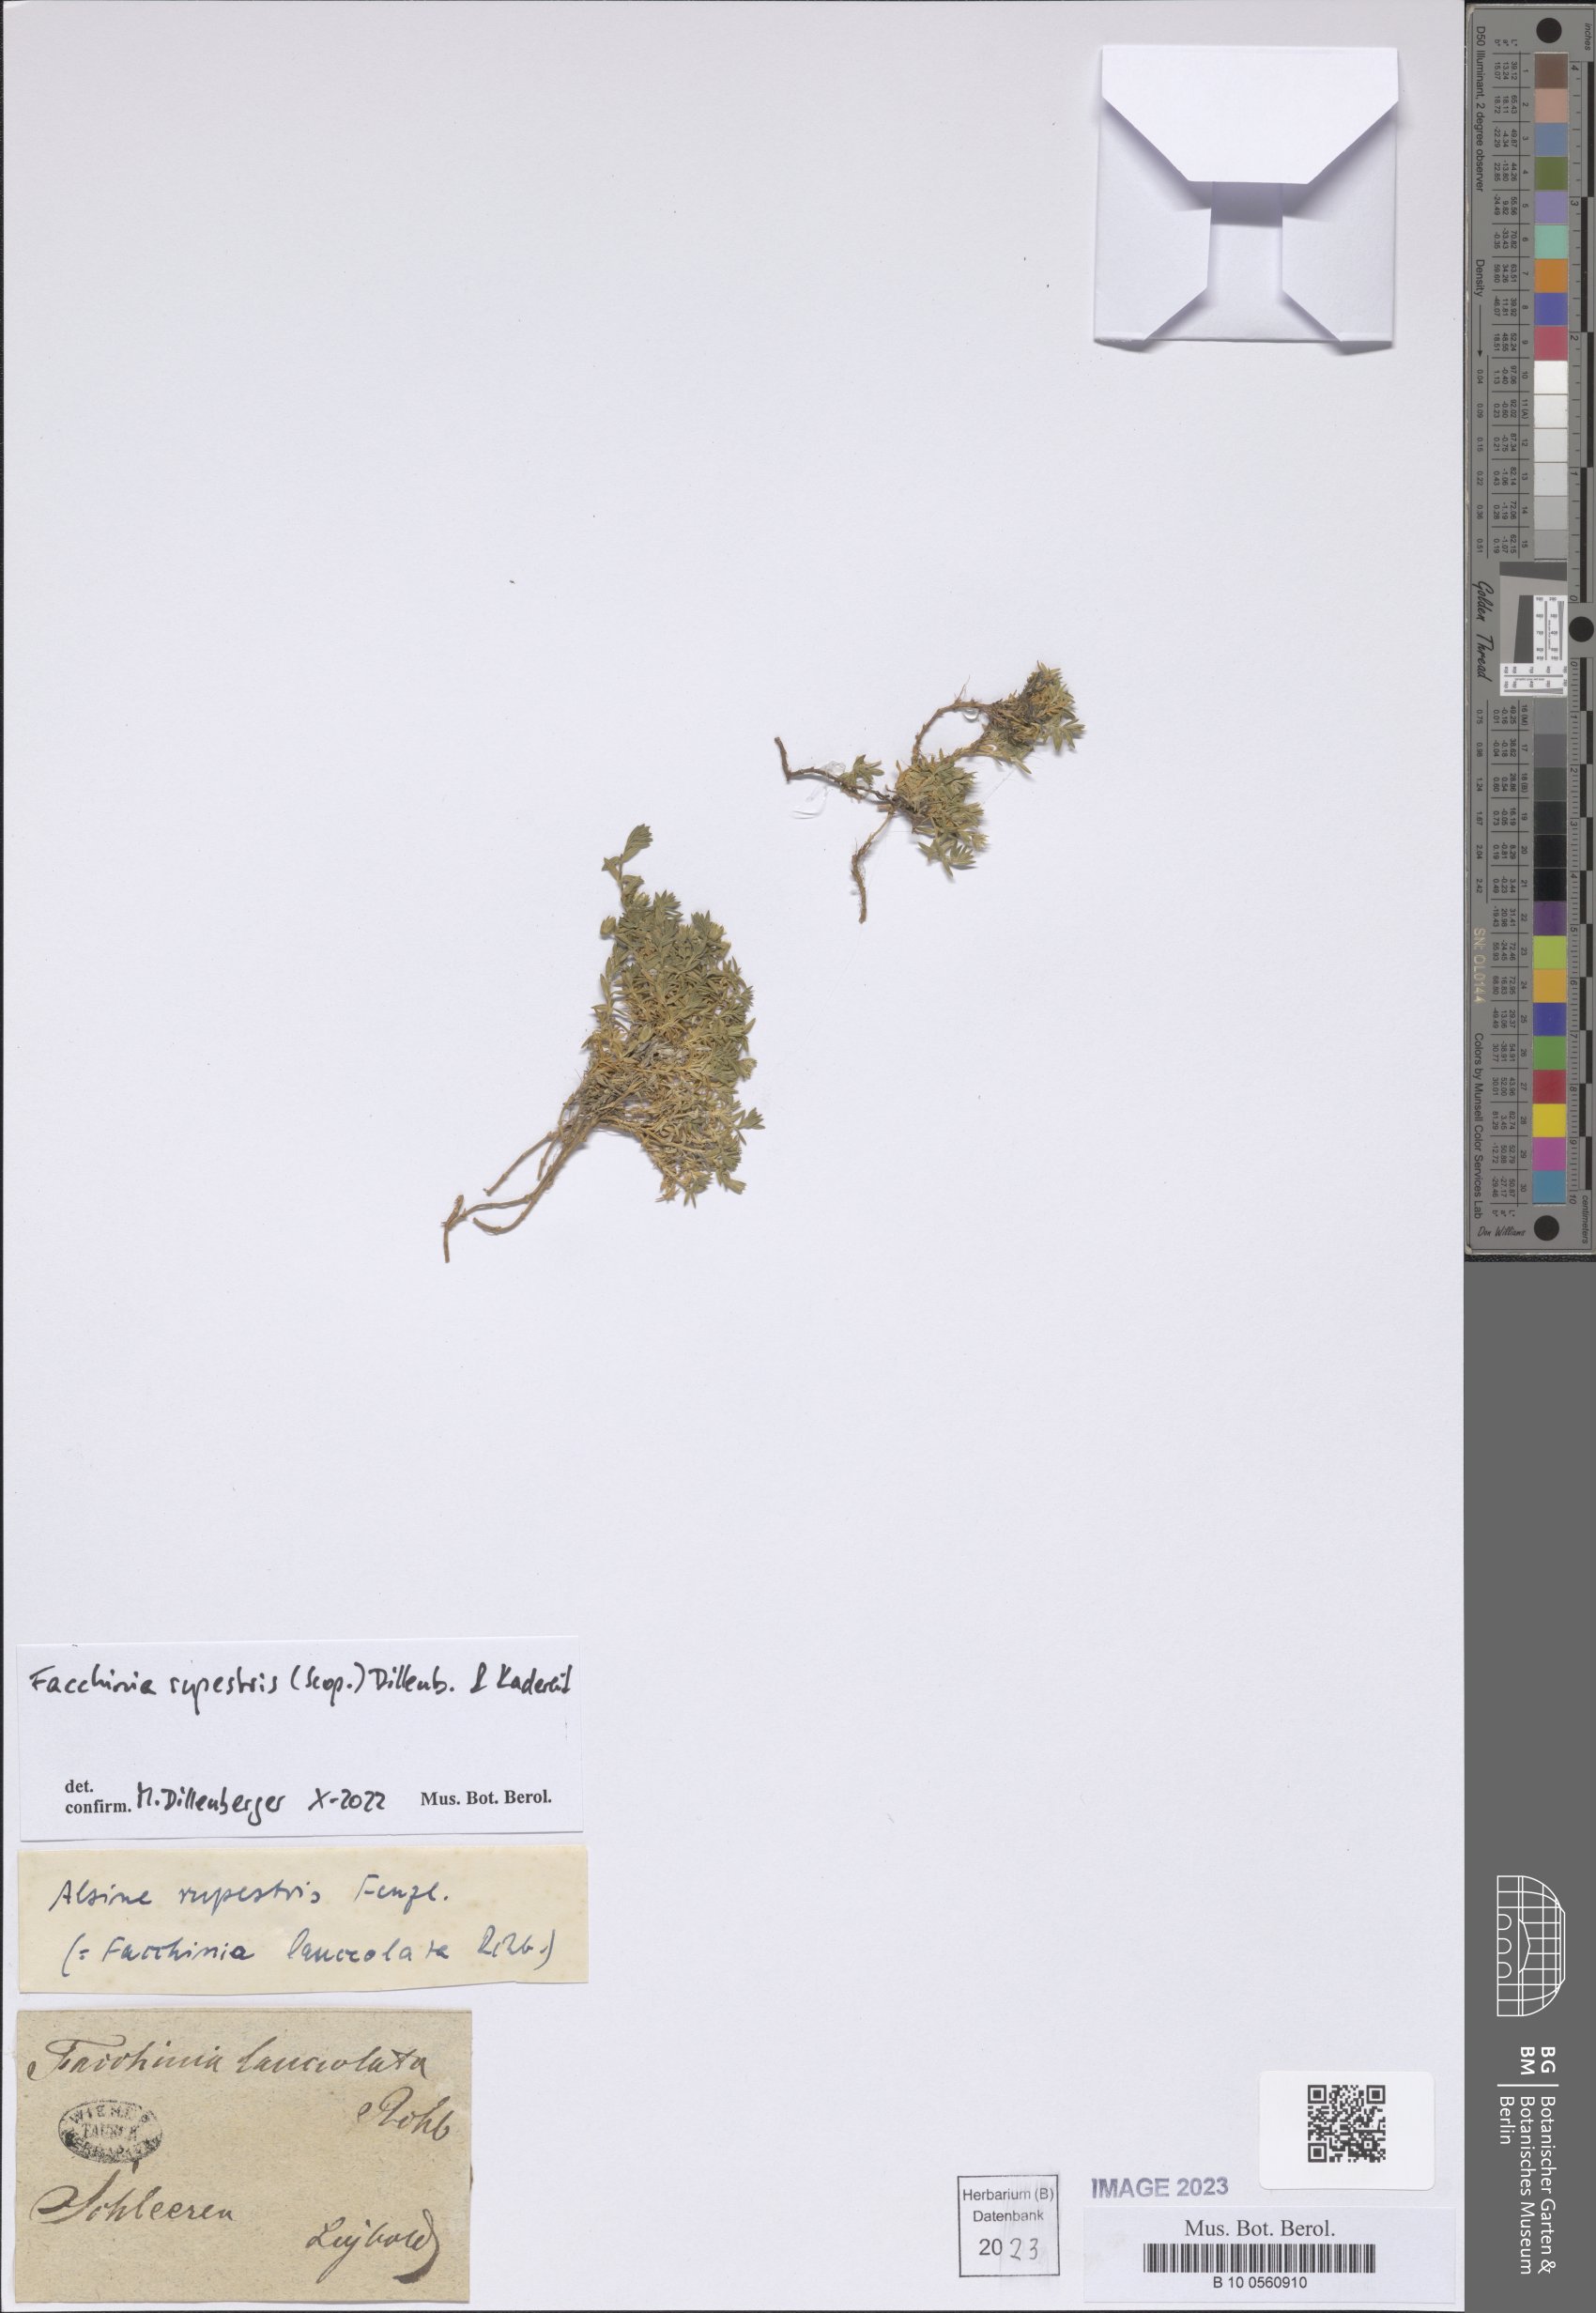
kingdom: Plantae
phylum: Tracheophyta
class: Magnoliopsida
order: Caryophyllales
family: Caryophyllaceae
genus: Facchinia
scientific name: Facchinia rupestris
